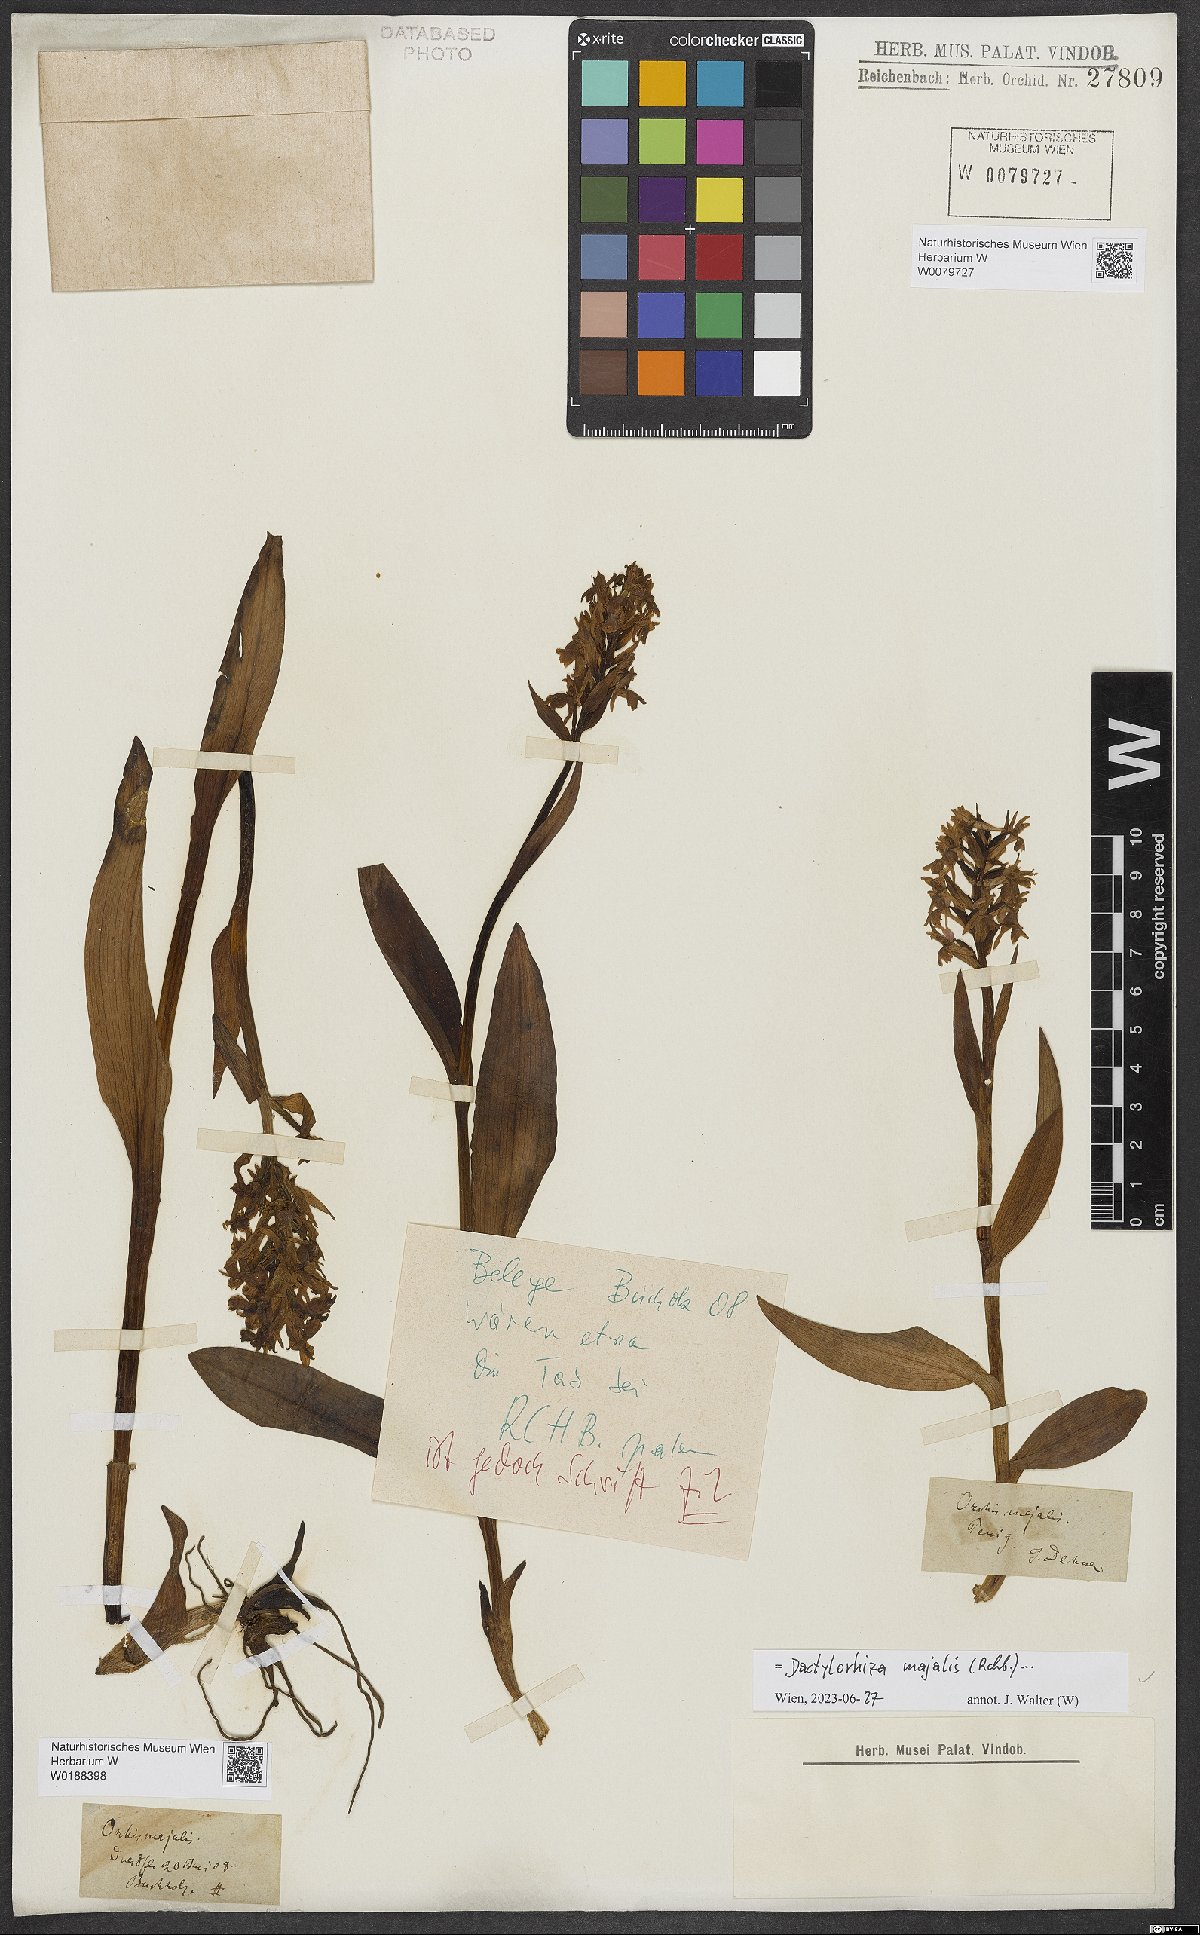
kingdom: Plantae
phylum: Tracheophyta
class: Liliopsida
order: Asparagales
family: Orchidaceae
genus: Dactylorhiza
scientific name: Dactylorhiza majalis
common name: Marsh orchid
